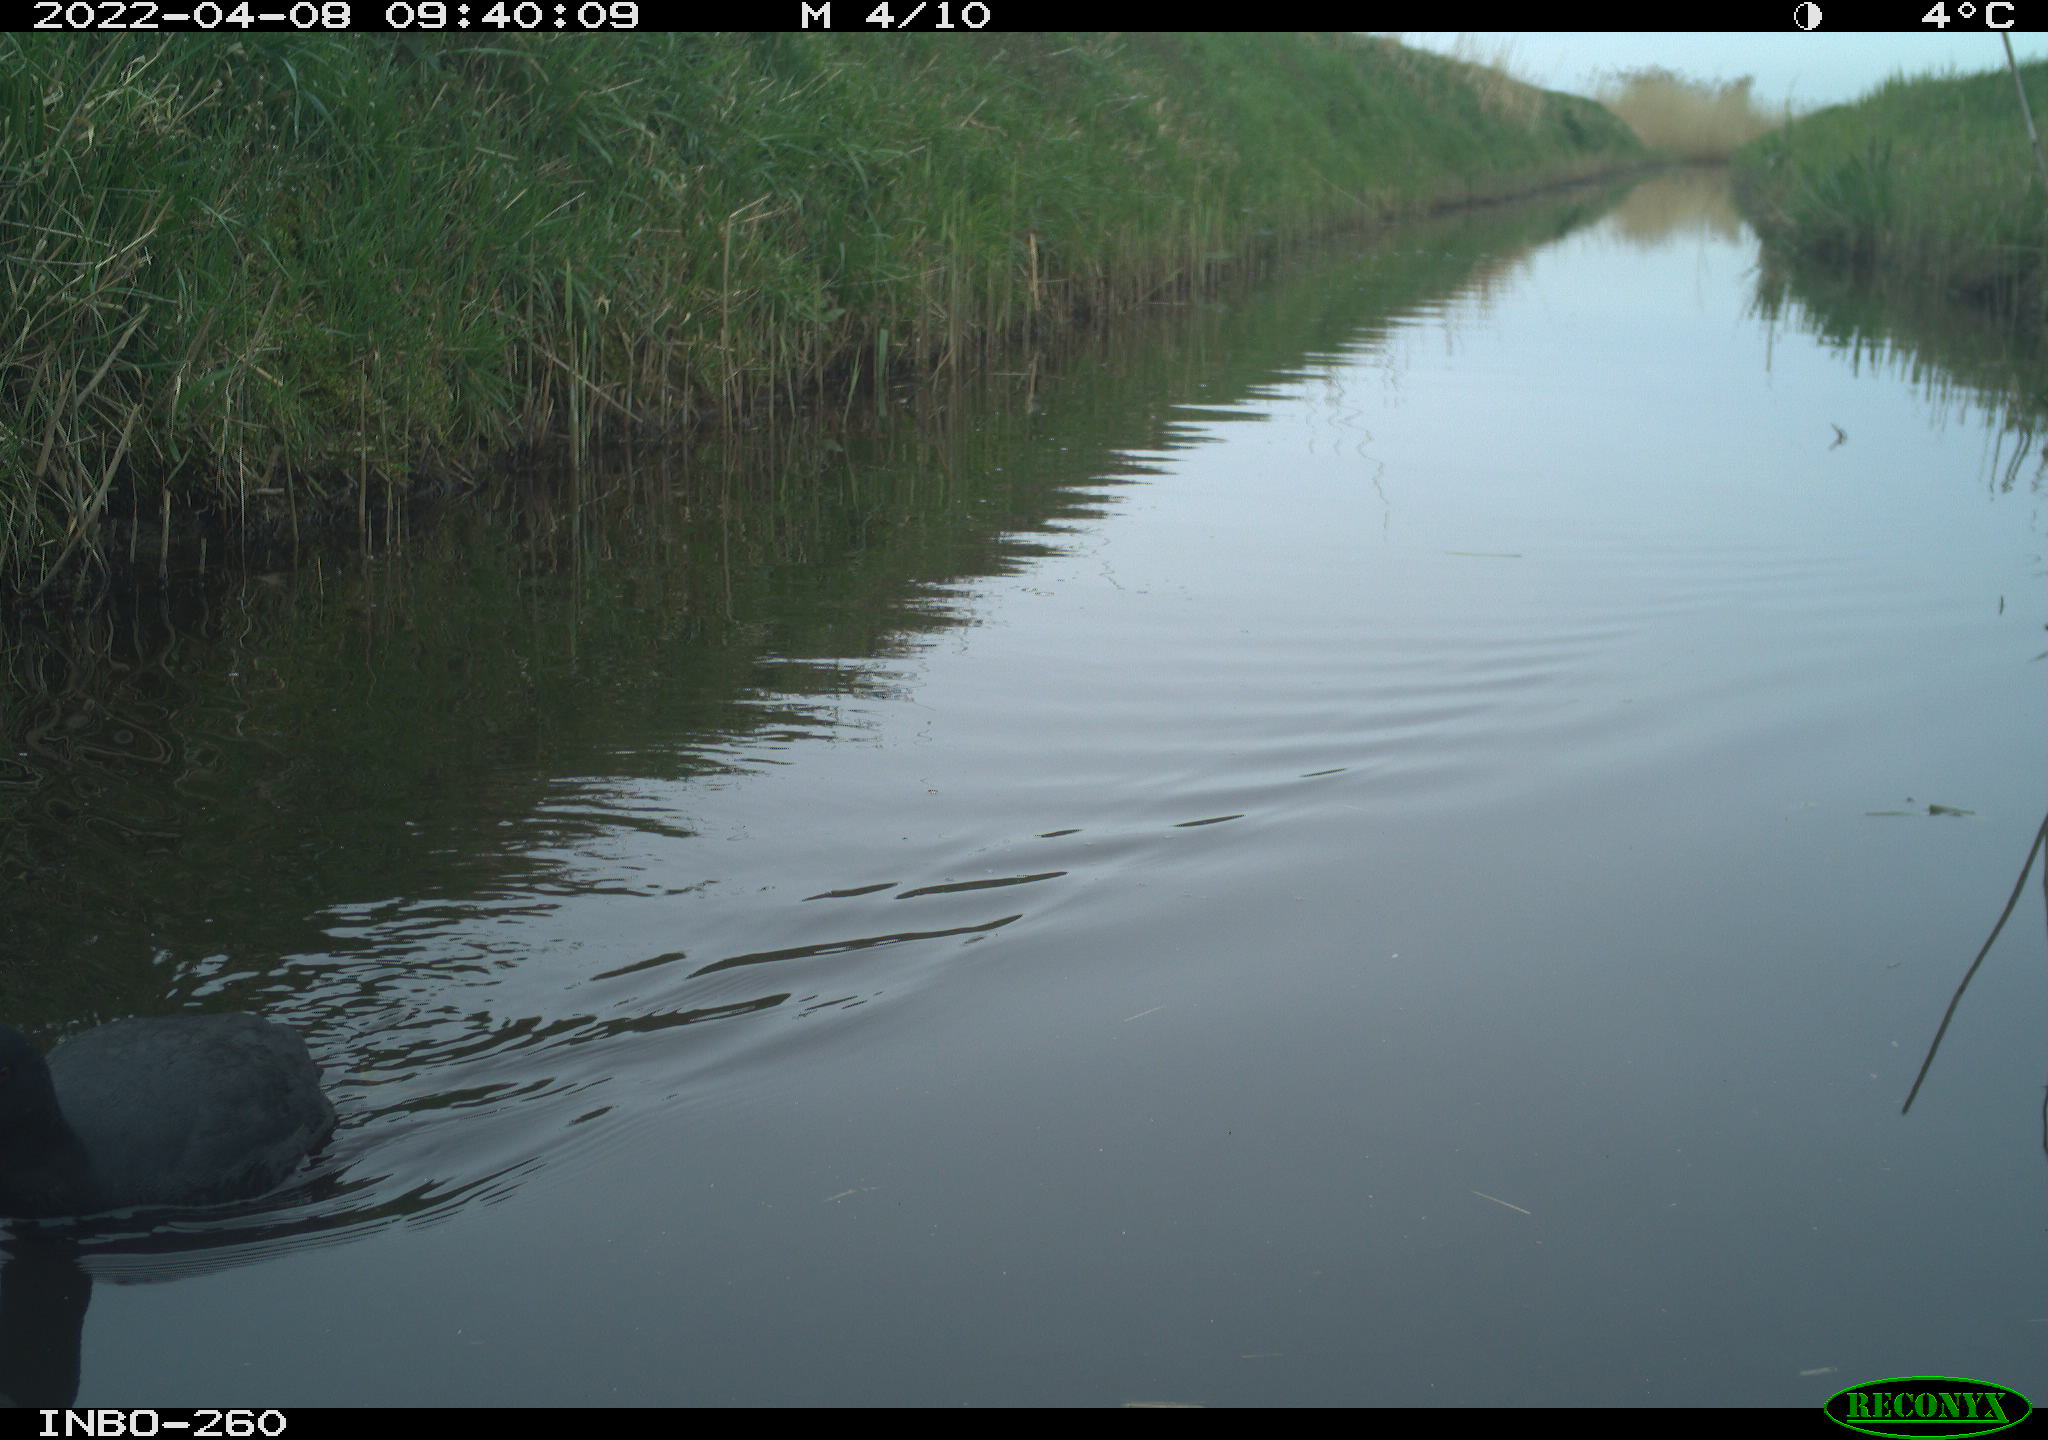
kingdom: Animalia
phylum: Chordata
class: Aves
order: Gruiformes
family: Rallidae
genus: Fulica
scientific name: Fulica atra
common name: Eurasian coot
